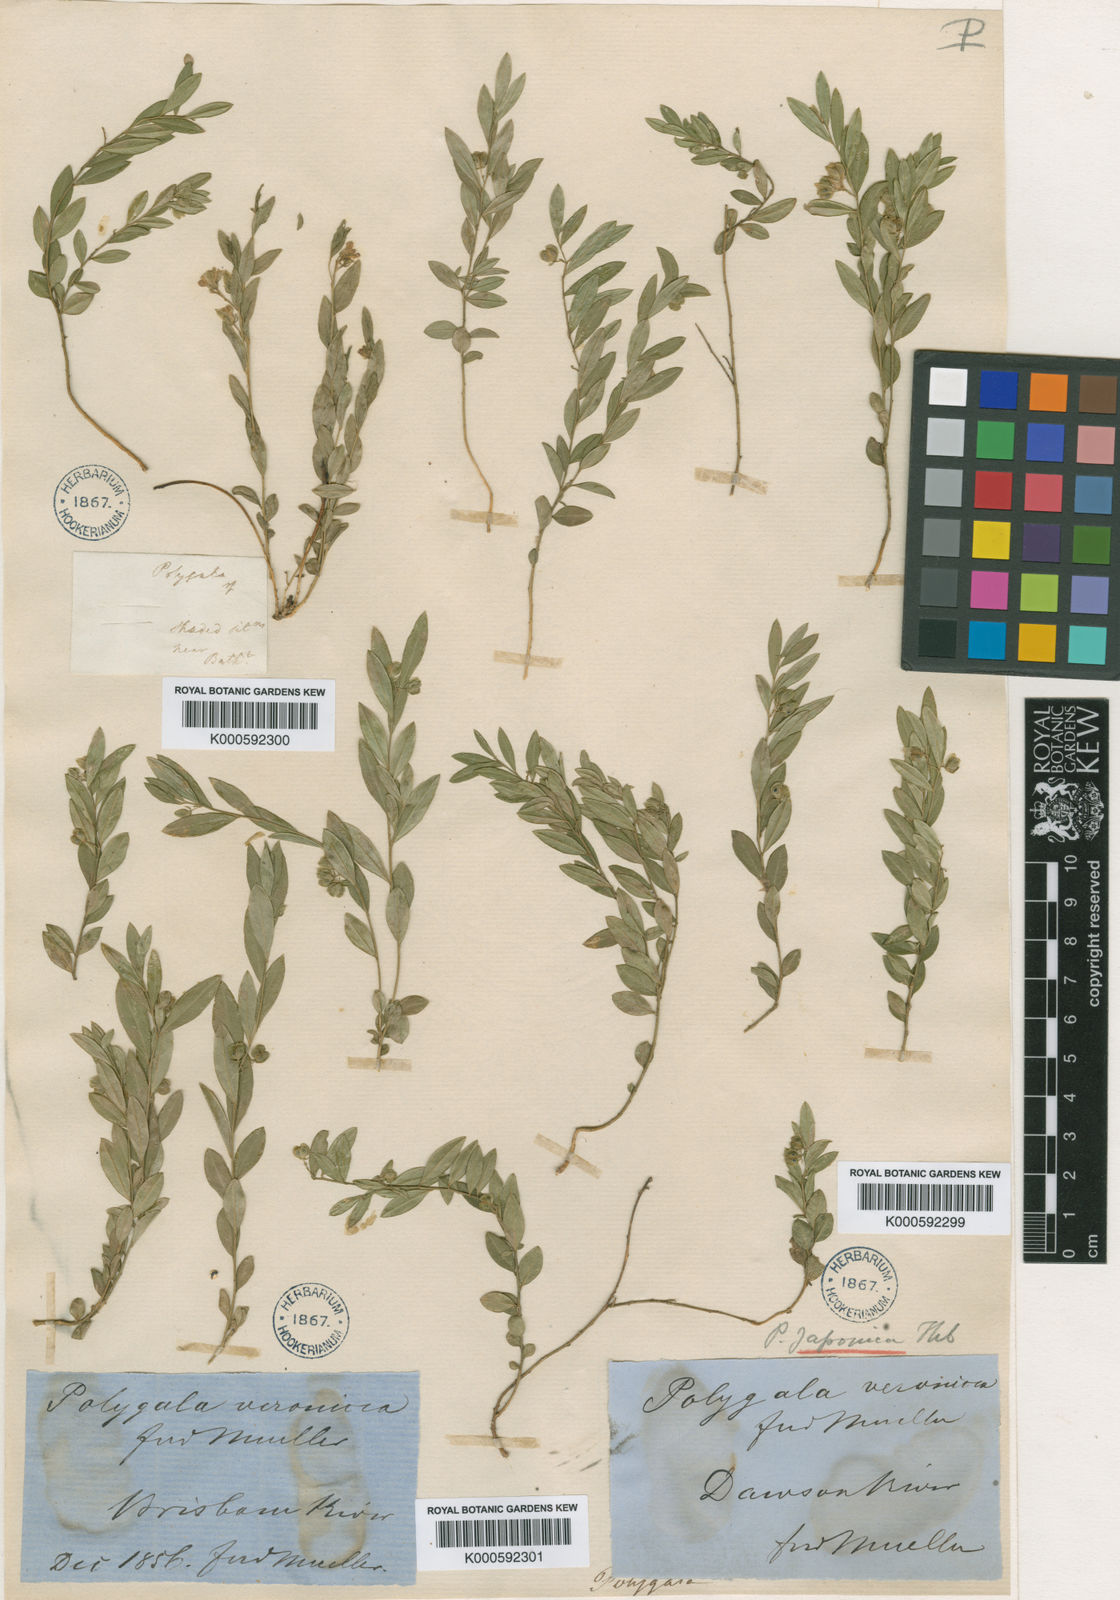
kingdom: Plantae
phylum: Tracheophyta
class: Magnoliopsida
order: Fabales
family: Polygalaceae
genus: Polygala
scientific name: Polygala japonica
